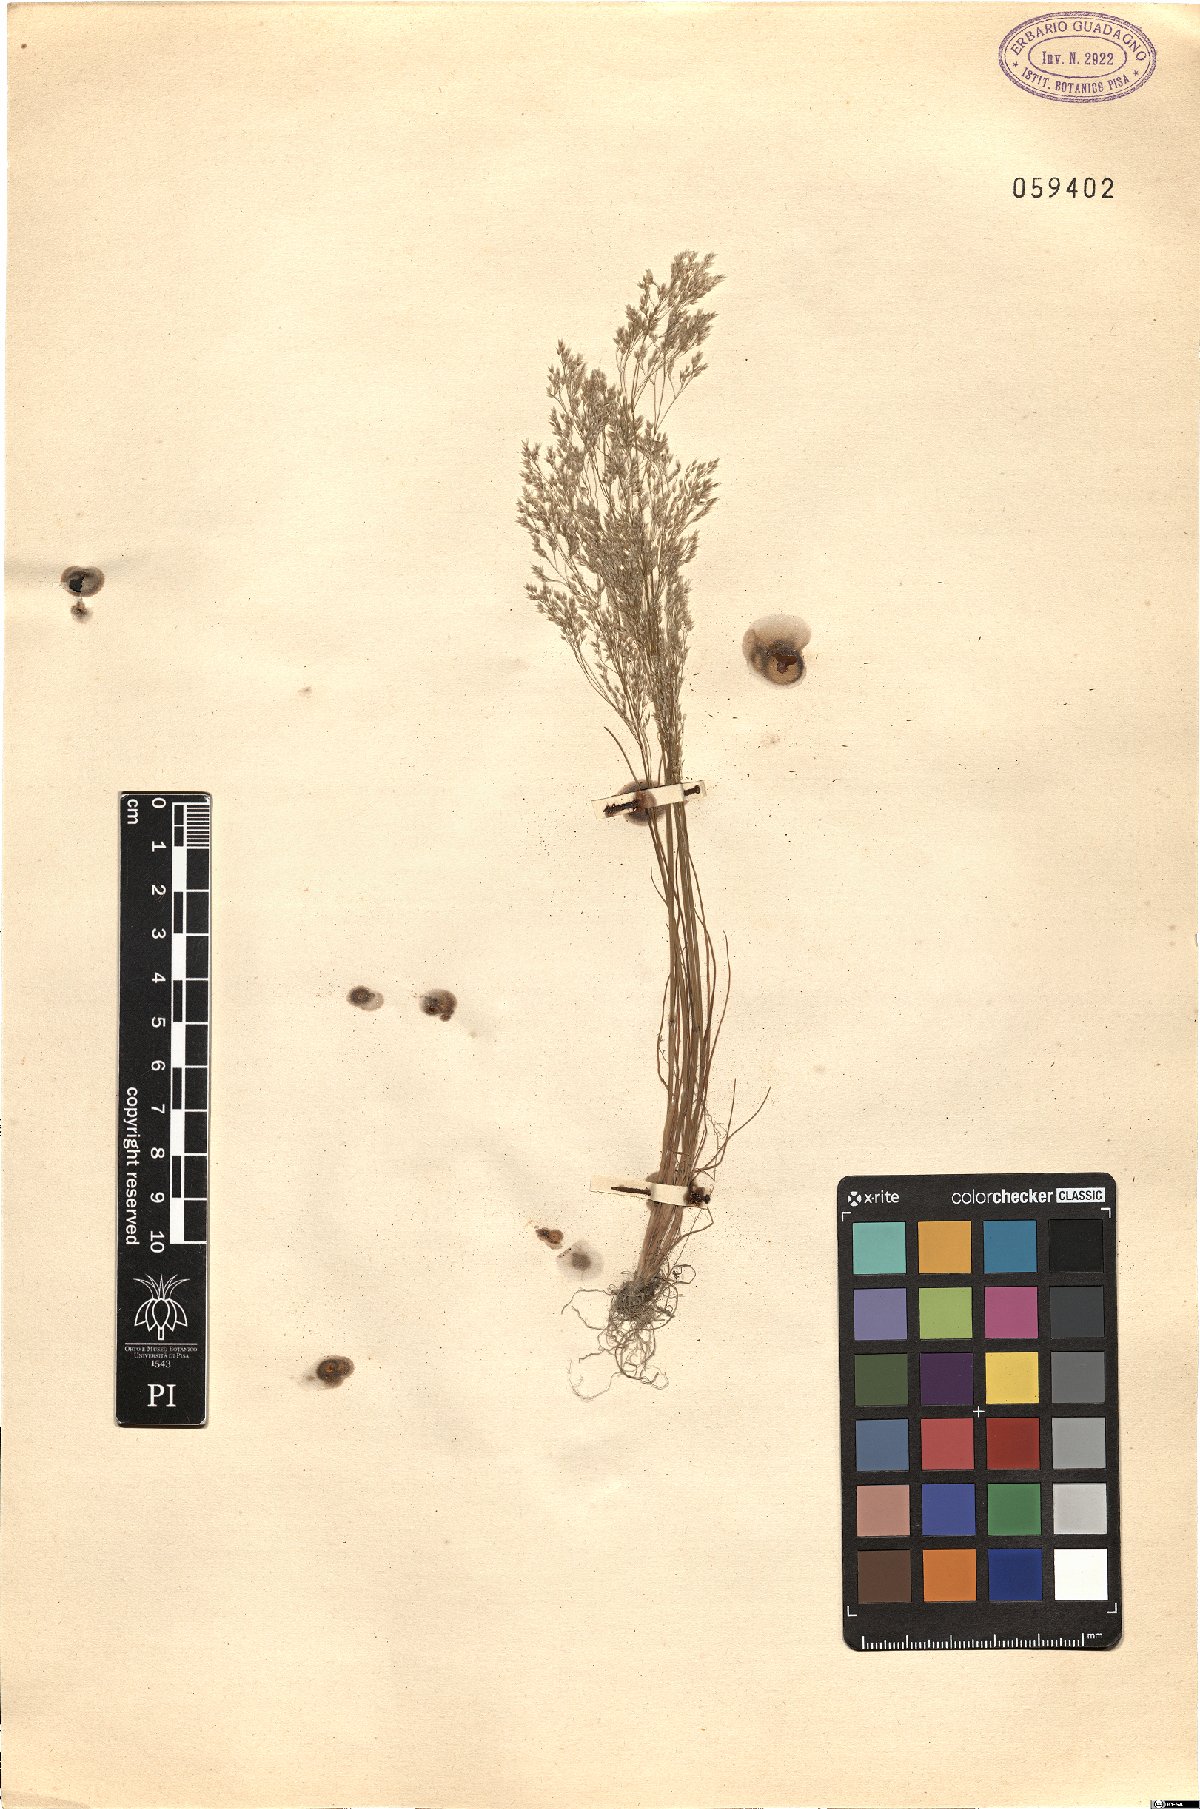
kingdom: Plantae
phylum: Tracheophyta
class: Liliopsida
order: Poales
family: Poaceae
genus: Aira
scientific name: Aira cupaniana
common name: Silver hairgrass
